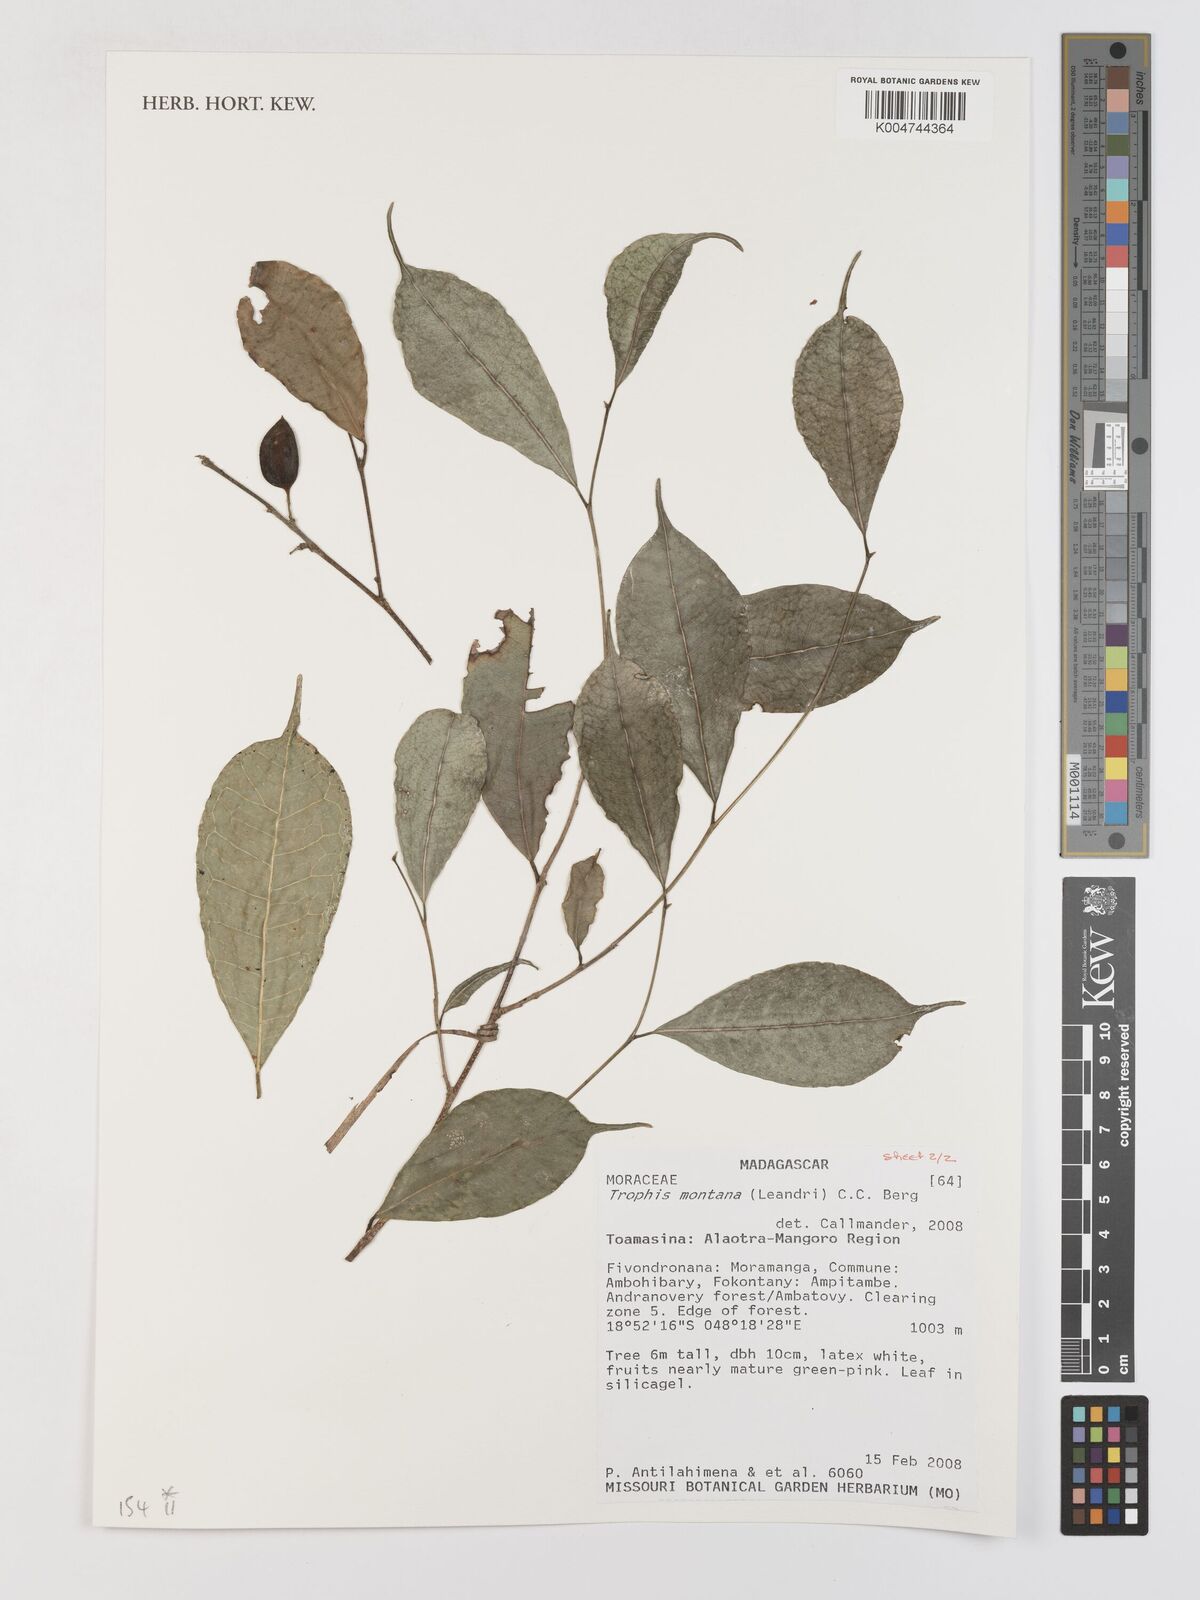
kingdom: Plantae
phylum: Tracheophyta
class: Magnoliopsida
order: Rosales
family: Moraceae
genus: Maillardia
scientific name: Maillardia montana
